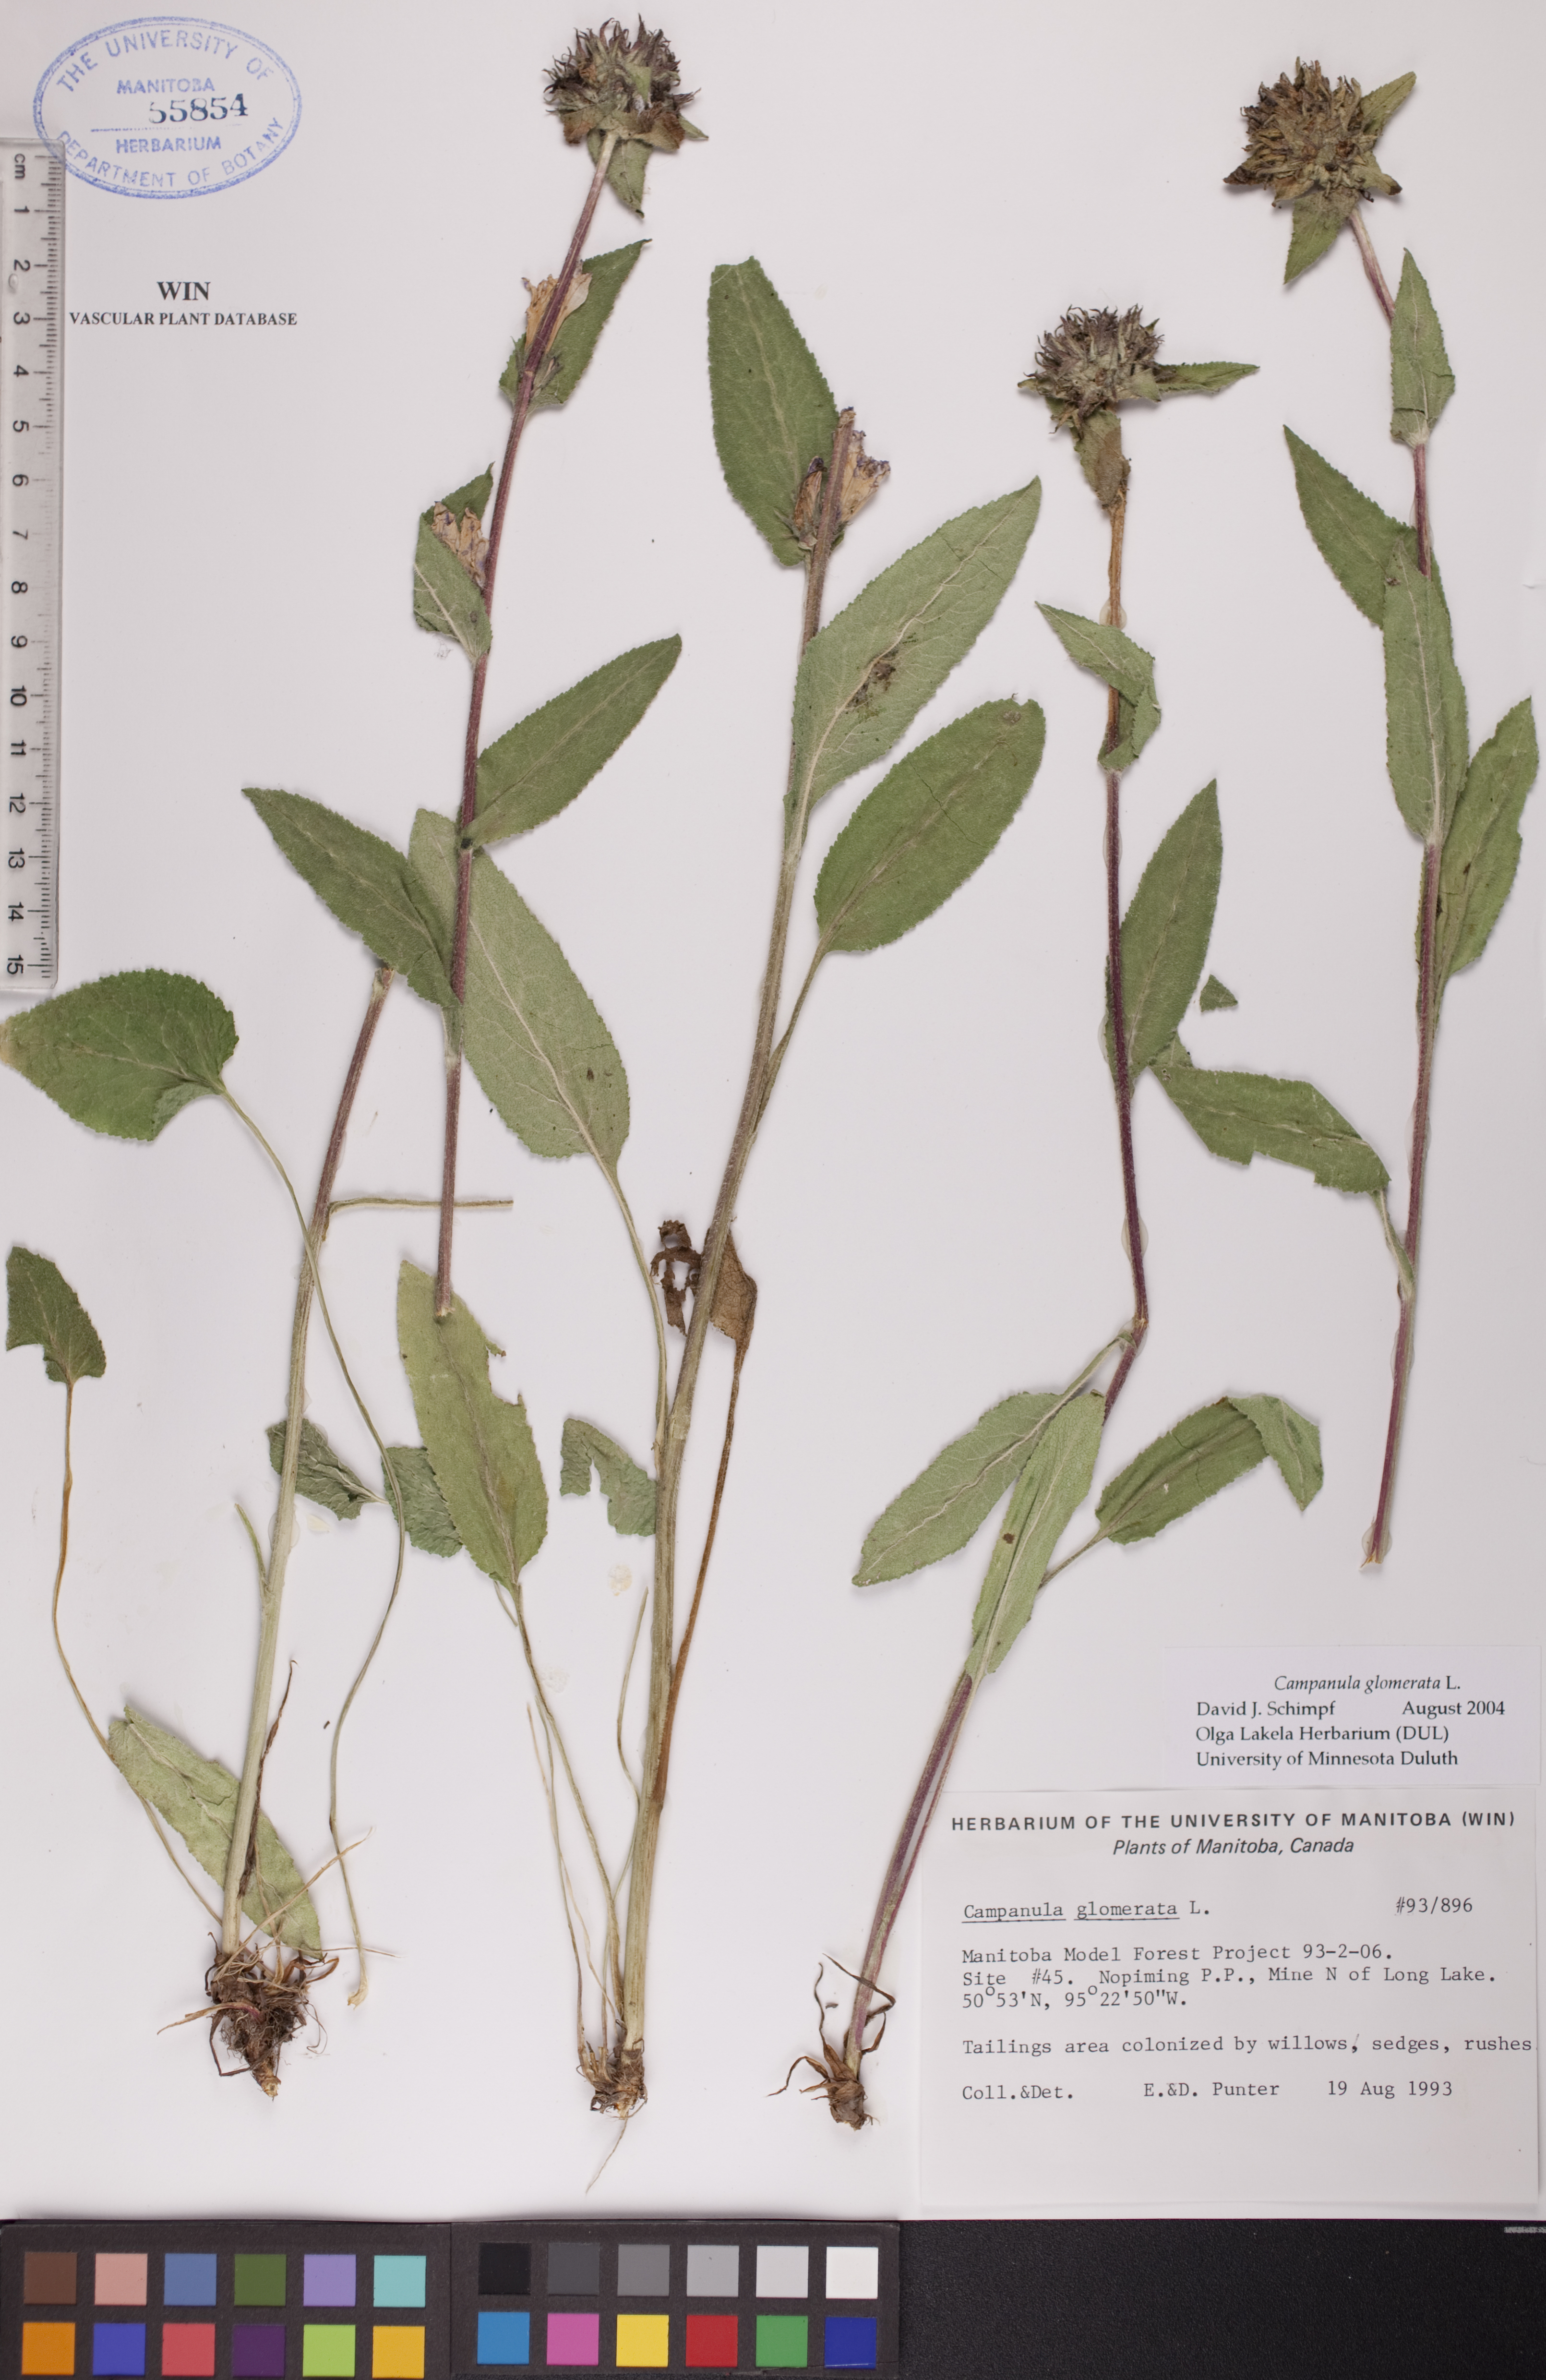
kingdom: Plantae
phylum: Tracheophyta
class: Magnoliopsida
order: Asterales
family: Campanulaceae
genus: Campanula
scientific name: Campanula glomerata
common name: Clustered bellflower
